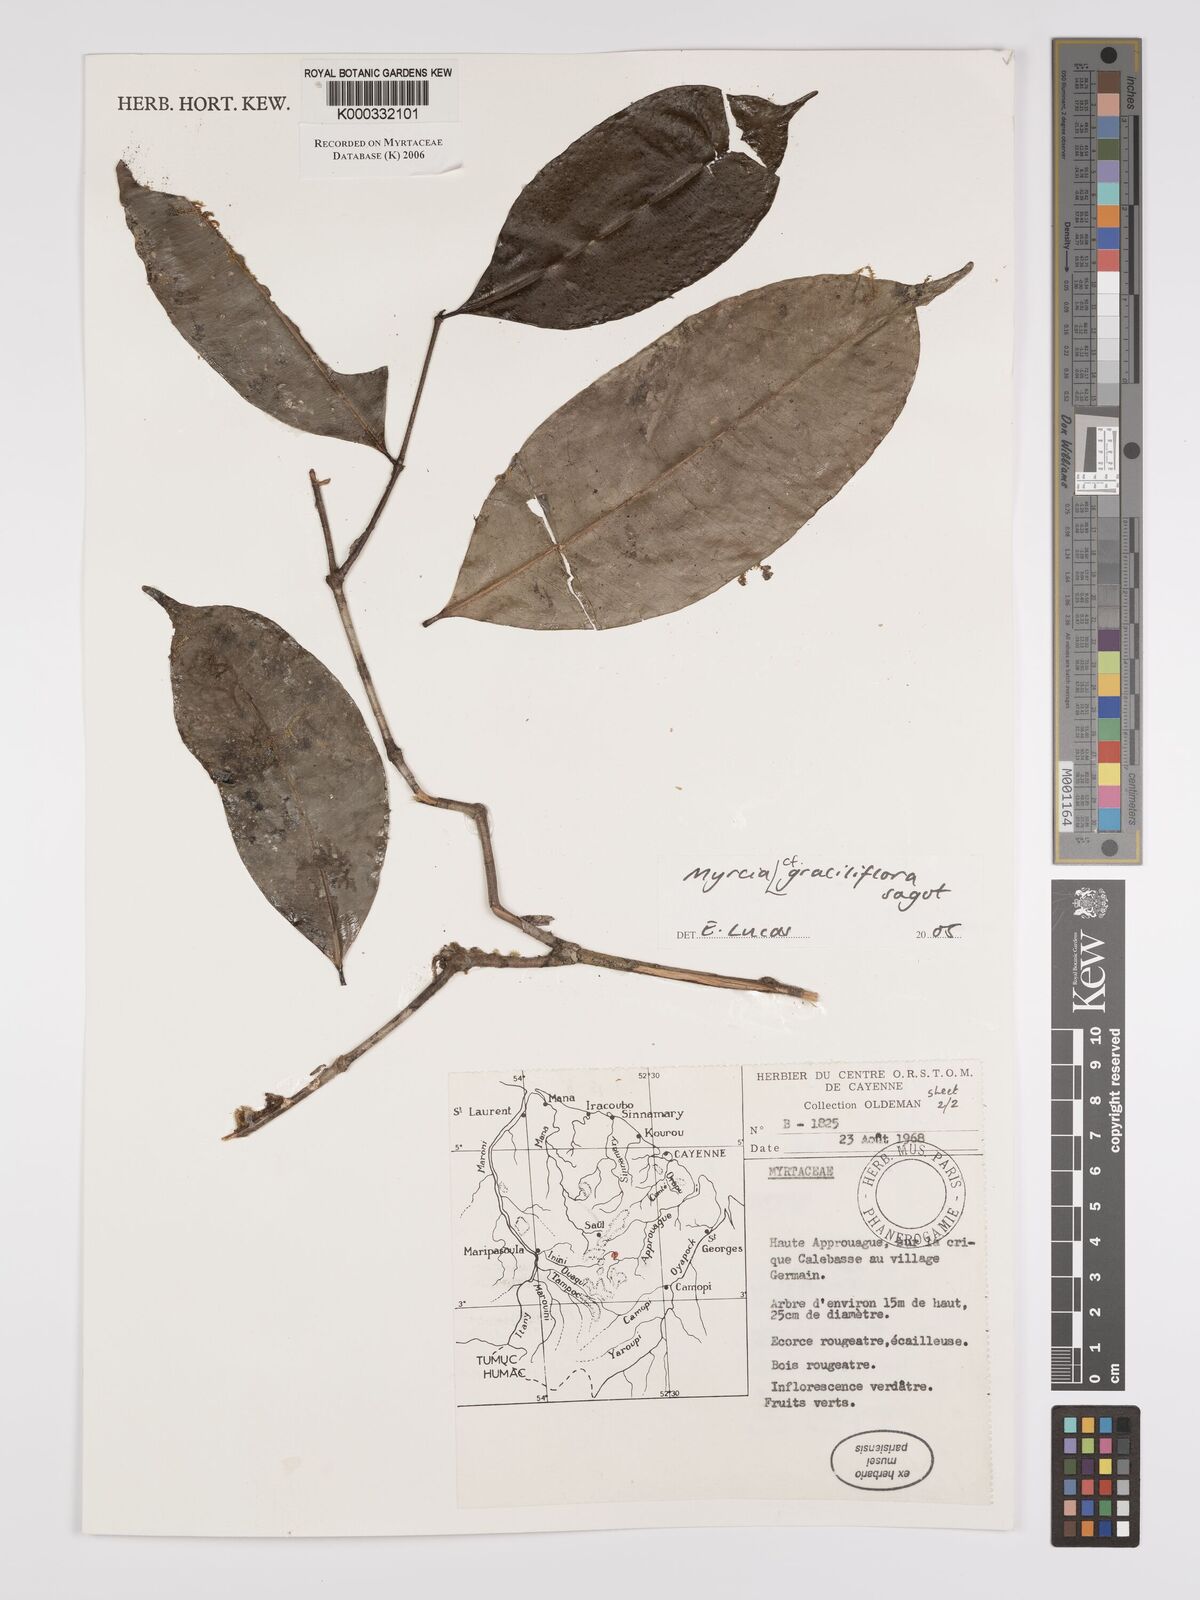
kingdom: Plantae
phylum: Tracheophyta
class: Magnoliopsida
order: Myrtales
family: Myrtaceae
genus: Myrcia
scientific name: Myrcia graciliflora
